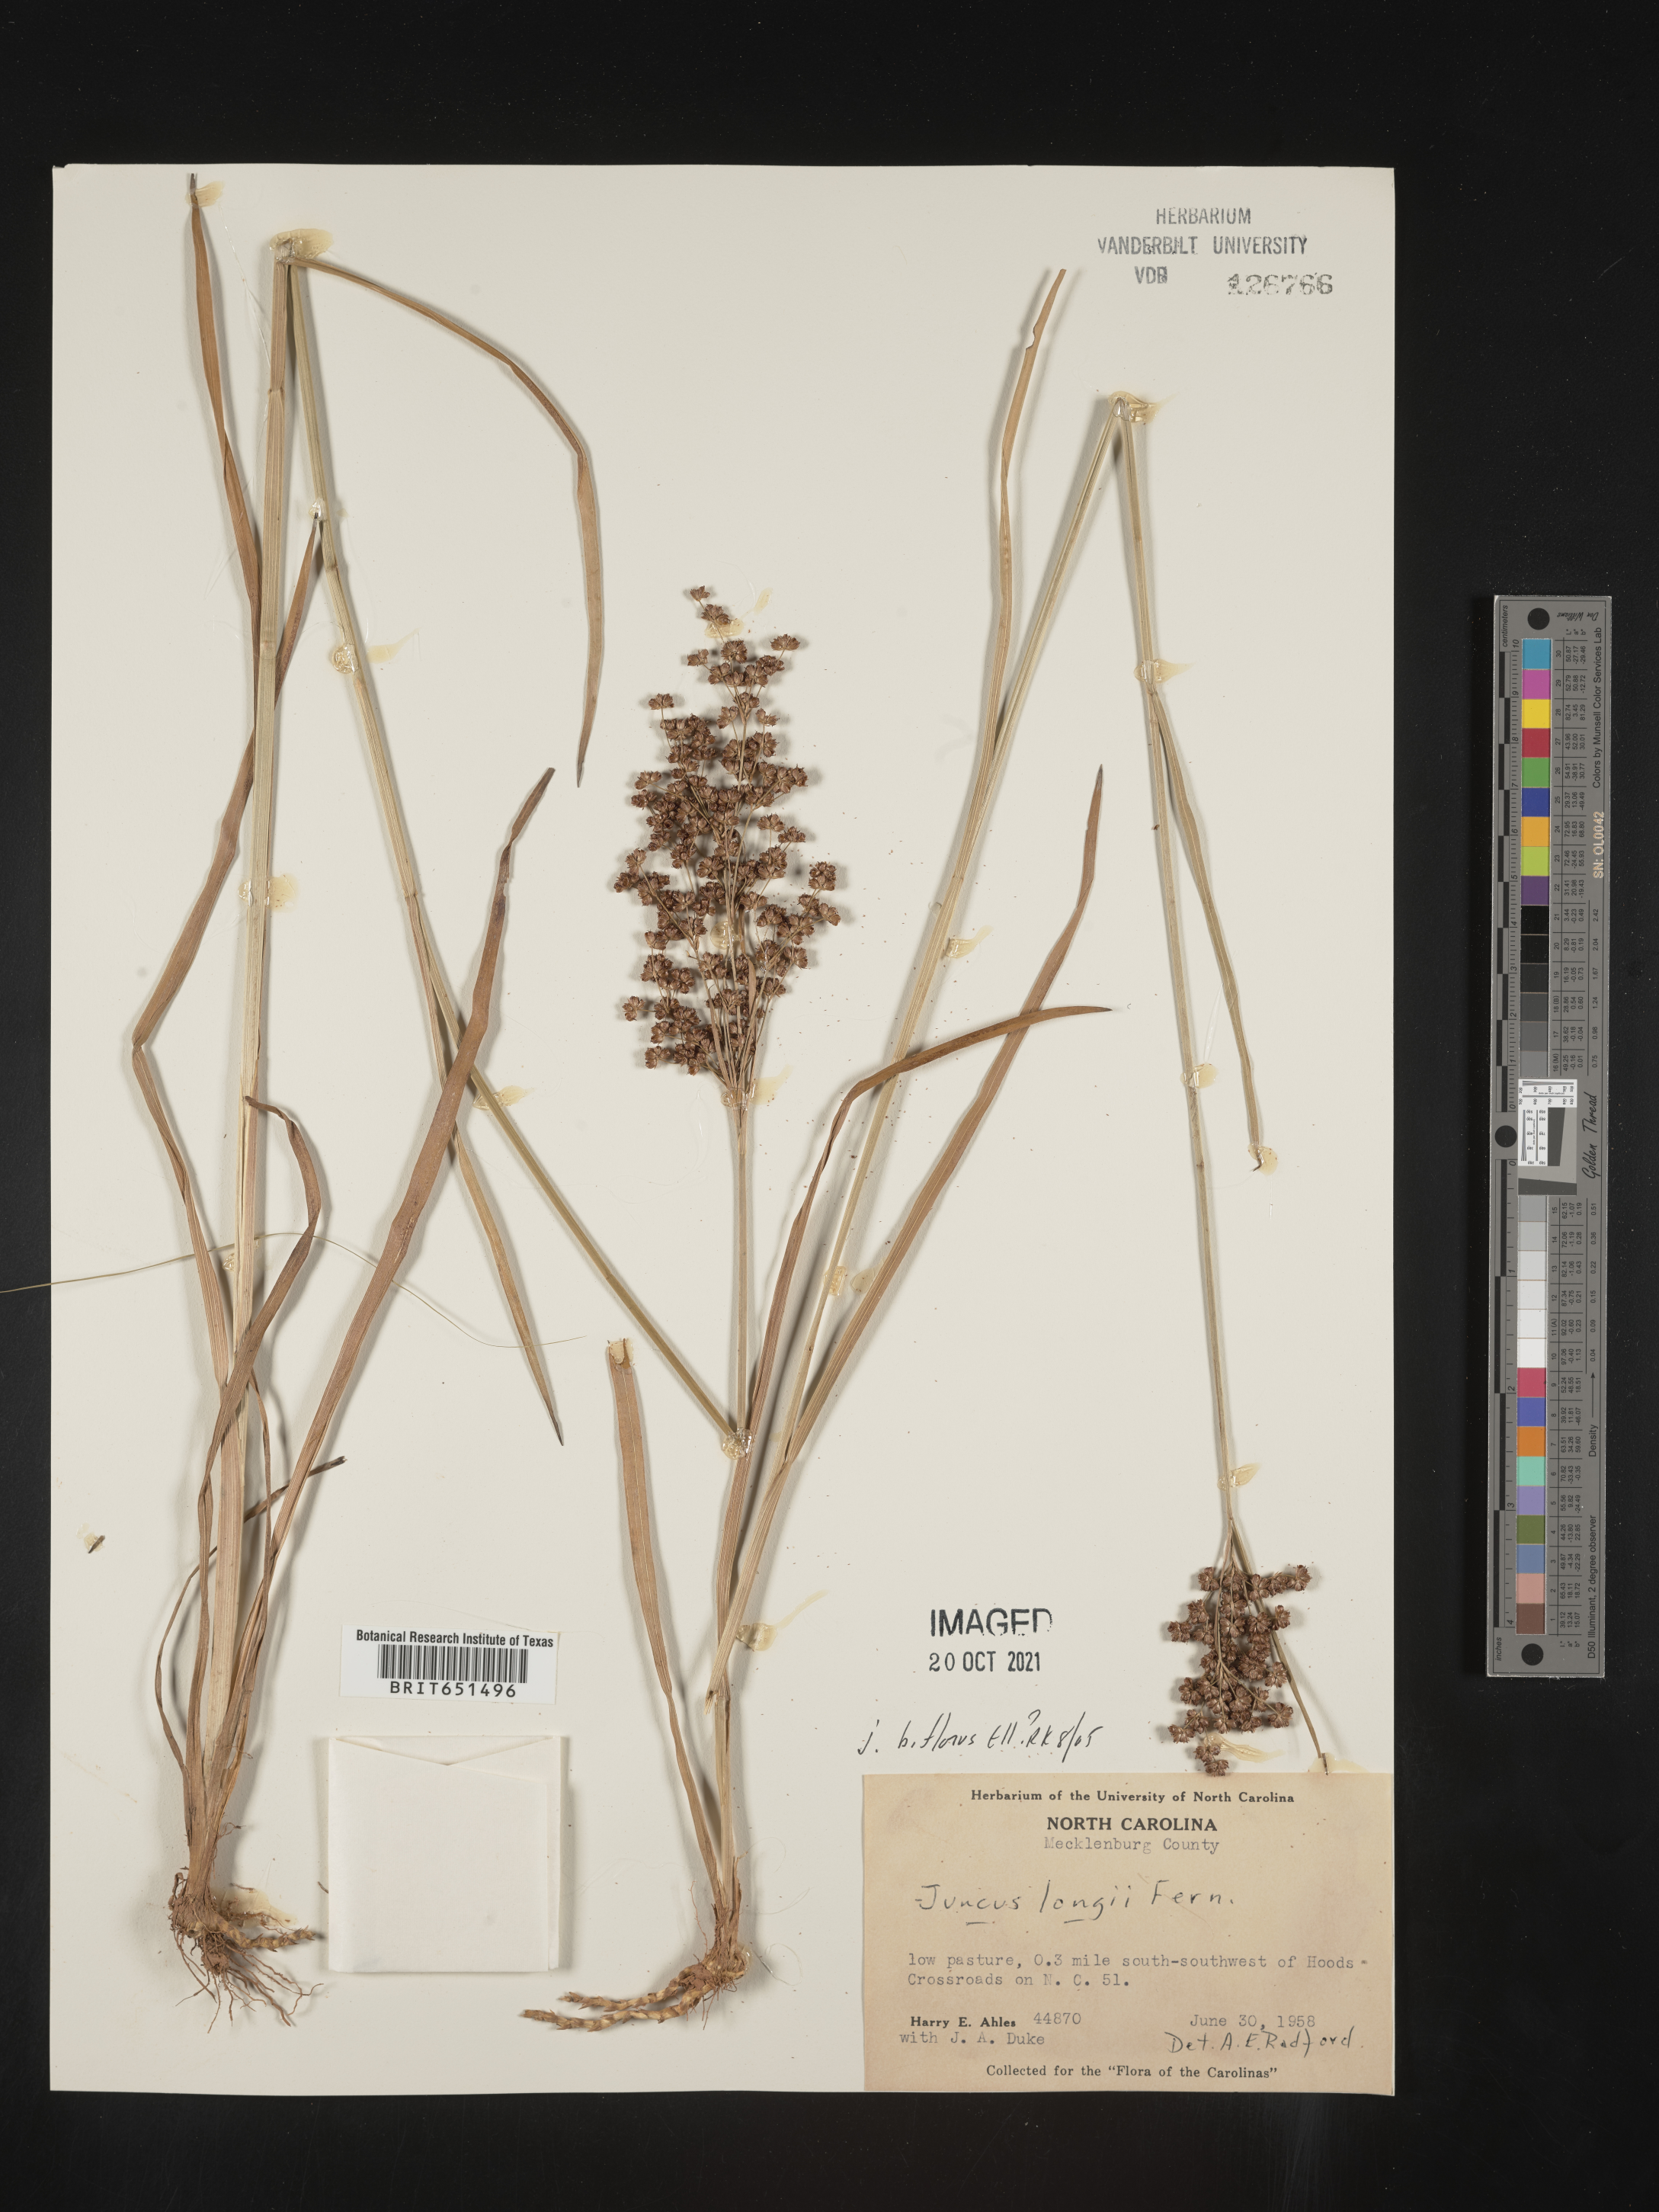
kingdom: Plantae
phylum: Tracheophyta
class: Liliopsida
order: Poales
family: Juncaceae
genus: Juncus
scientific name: Juncus biflorus
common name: Two-flowered rush
